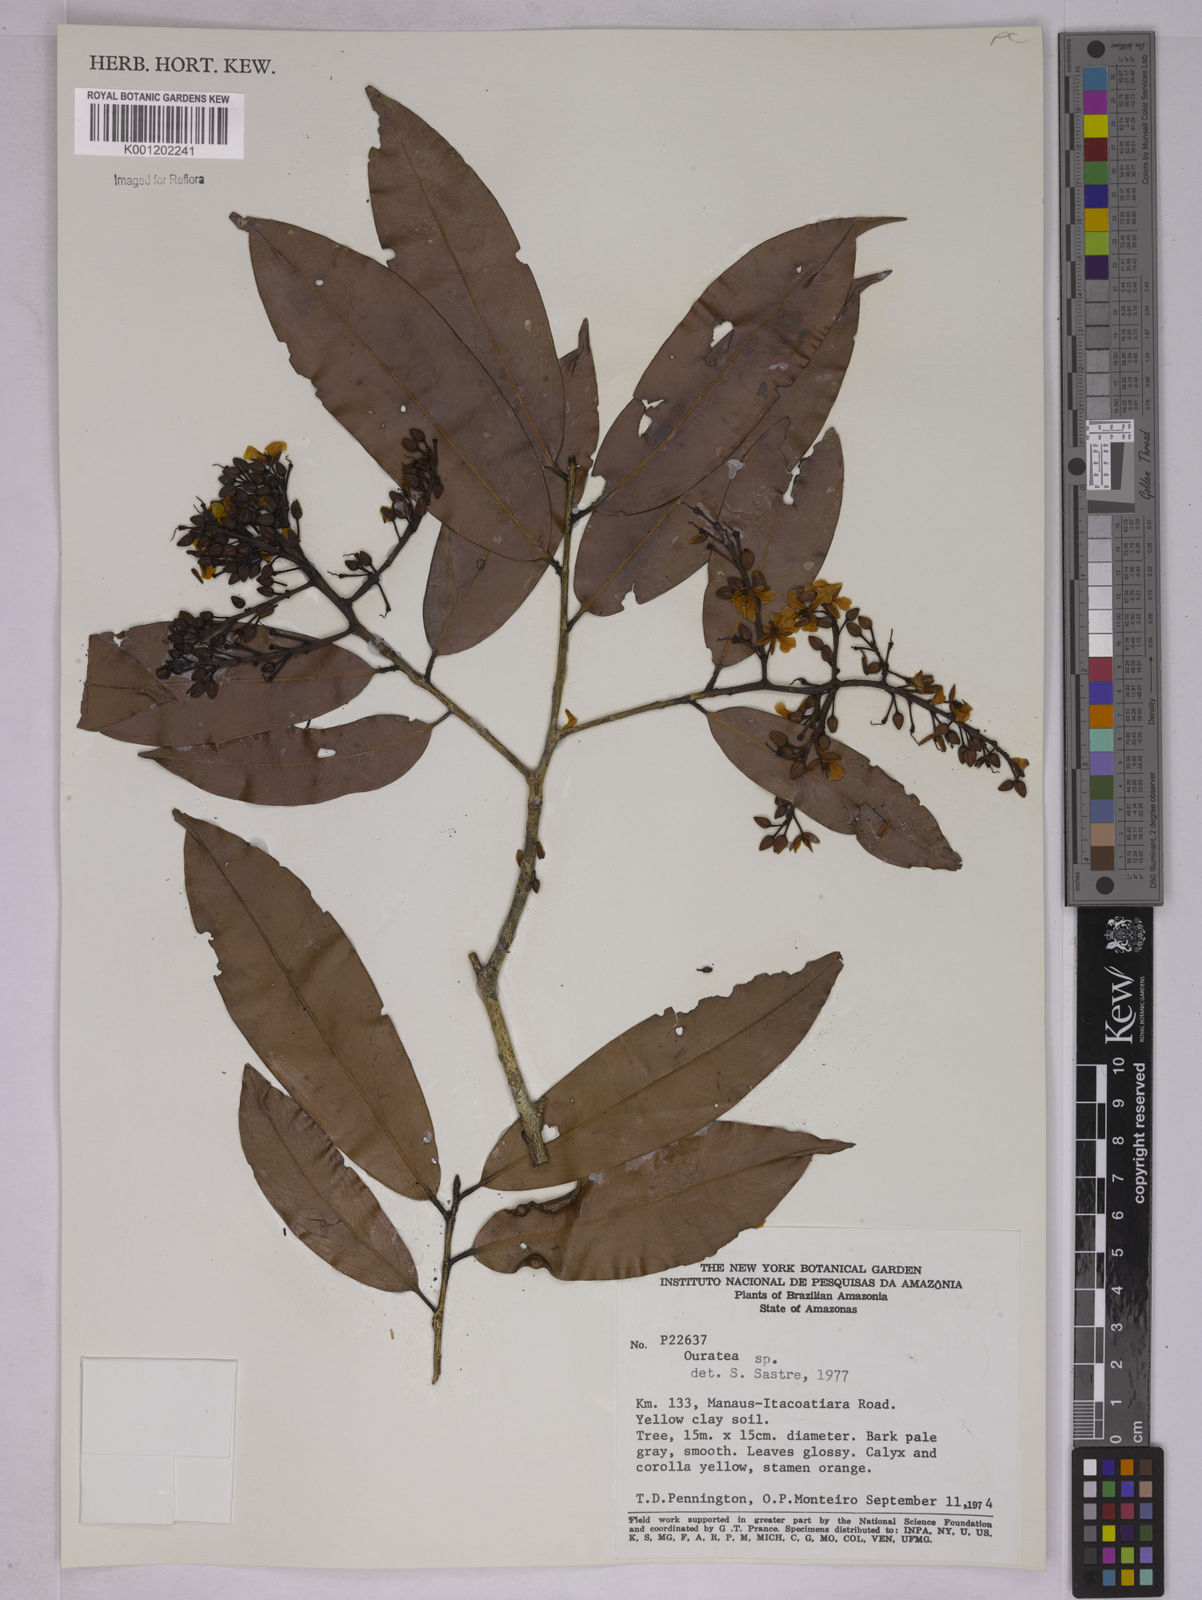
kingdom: Plantae
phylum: Tracheophyta
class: Magnoliopsida
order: Malpighiales
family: Ochnaceae
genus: Ouratea
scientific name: Ouratea
